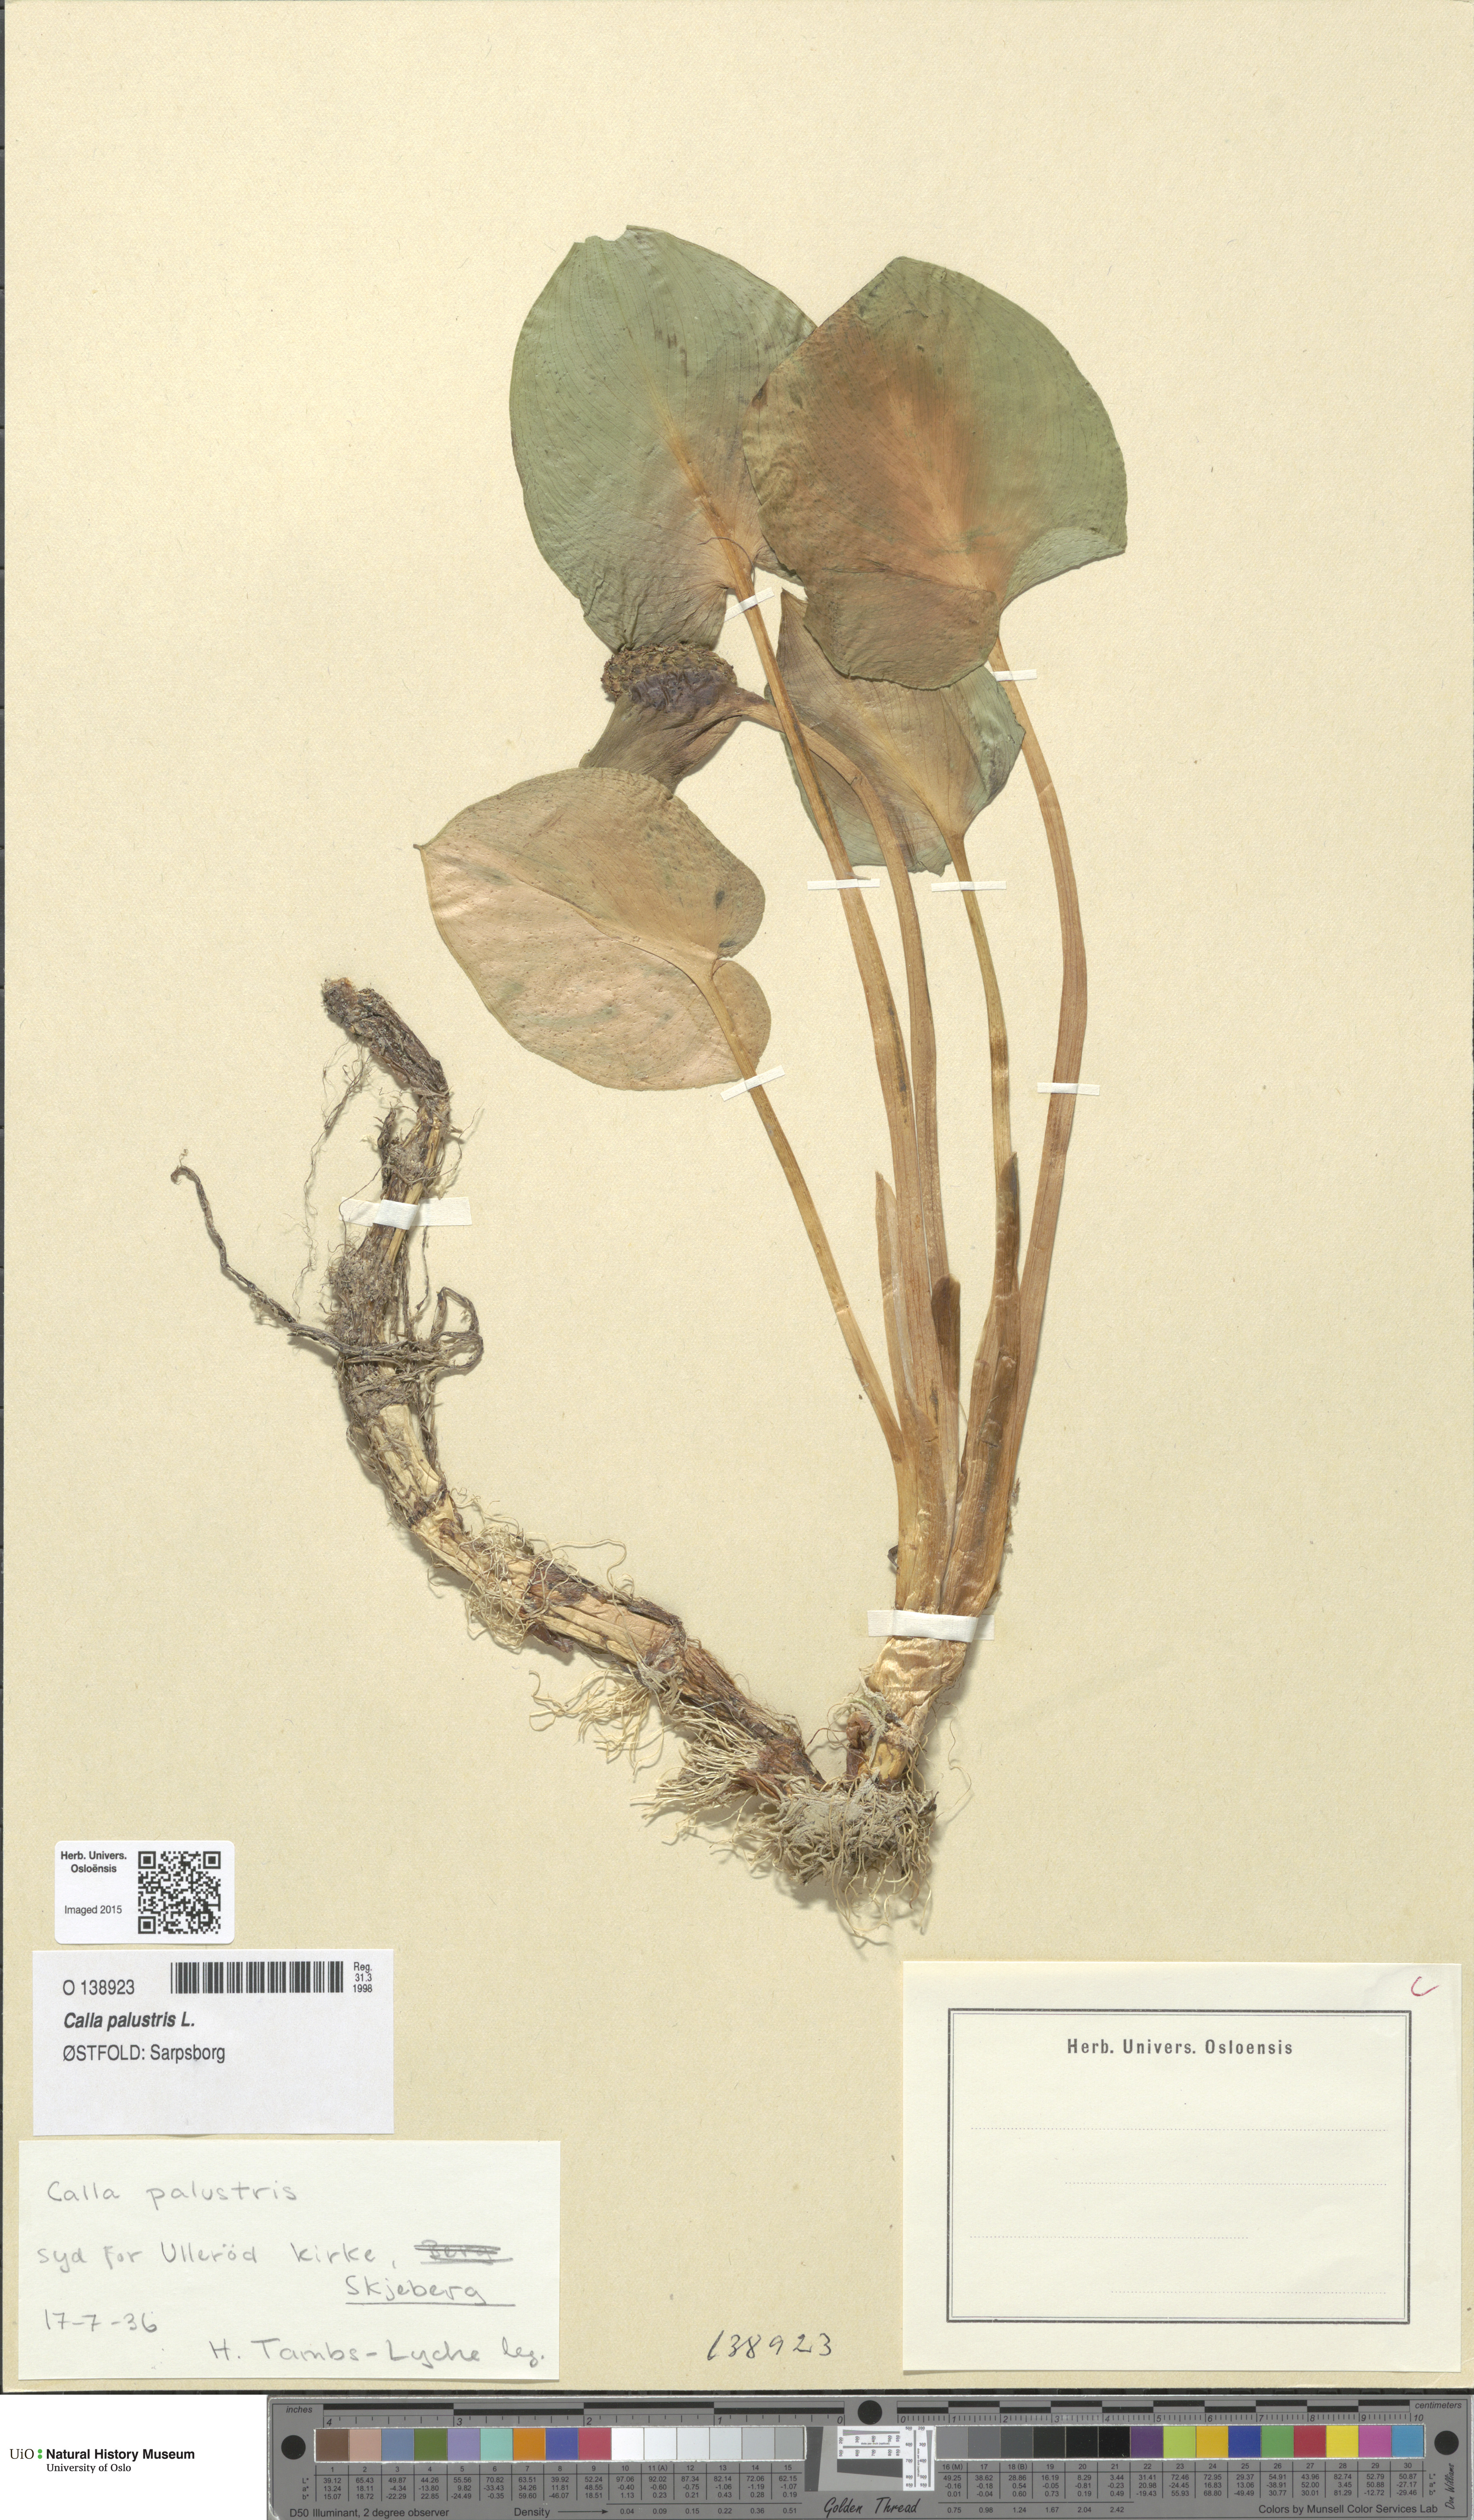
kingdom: Plantae
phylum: Tracheophyta
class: Liliopsida
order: Alismatales
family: Araceae
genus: Calla
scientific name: Calla palustris
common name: Bog arum
